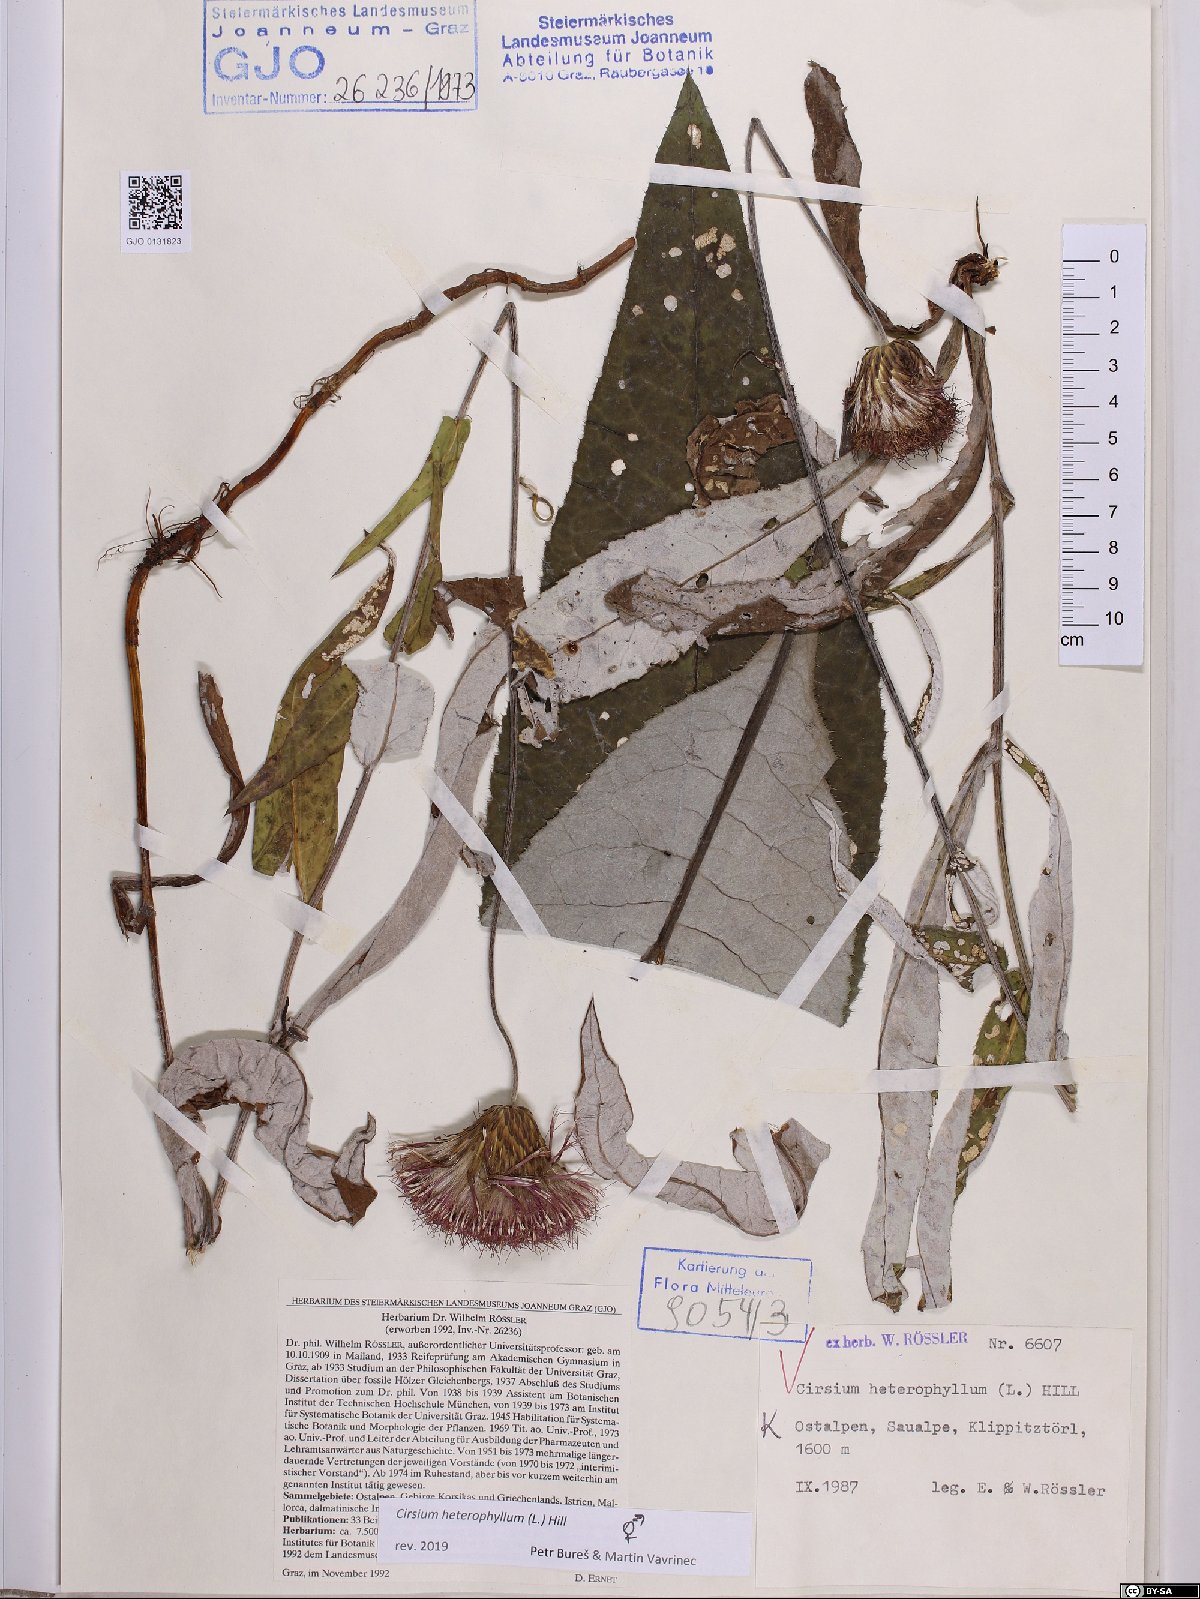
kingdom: Plantae
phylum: Tracheophyta
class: Magnoliopsida
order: Asterales
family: Asteraceae
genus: Cirsium
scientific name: Cirsium heterophyllum
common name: Melancholy thistle
